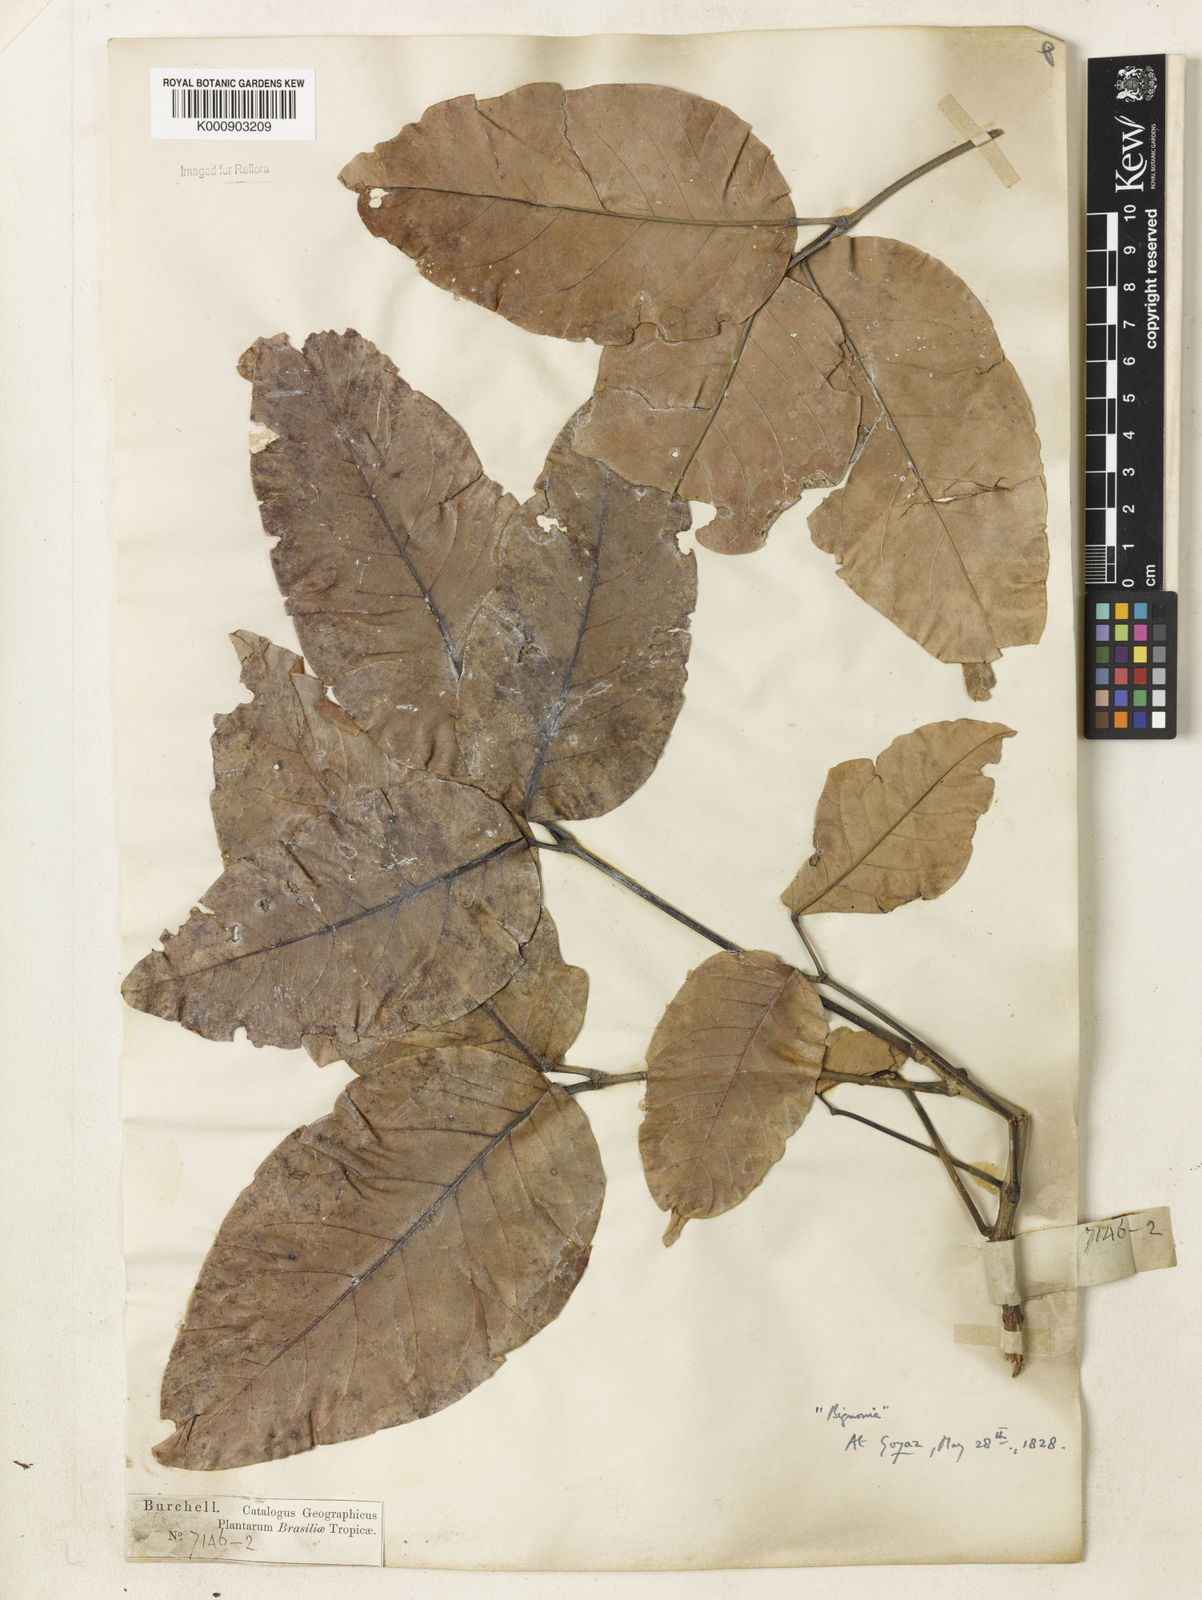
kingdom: Plantae
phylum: Tracheophyta
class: Magnoliopsida
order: Lamiales
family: Bignoniaceae
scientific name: Bignoniaceae
